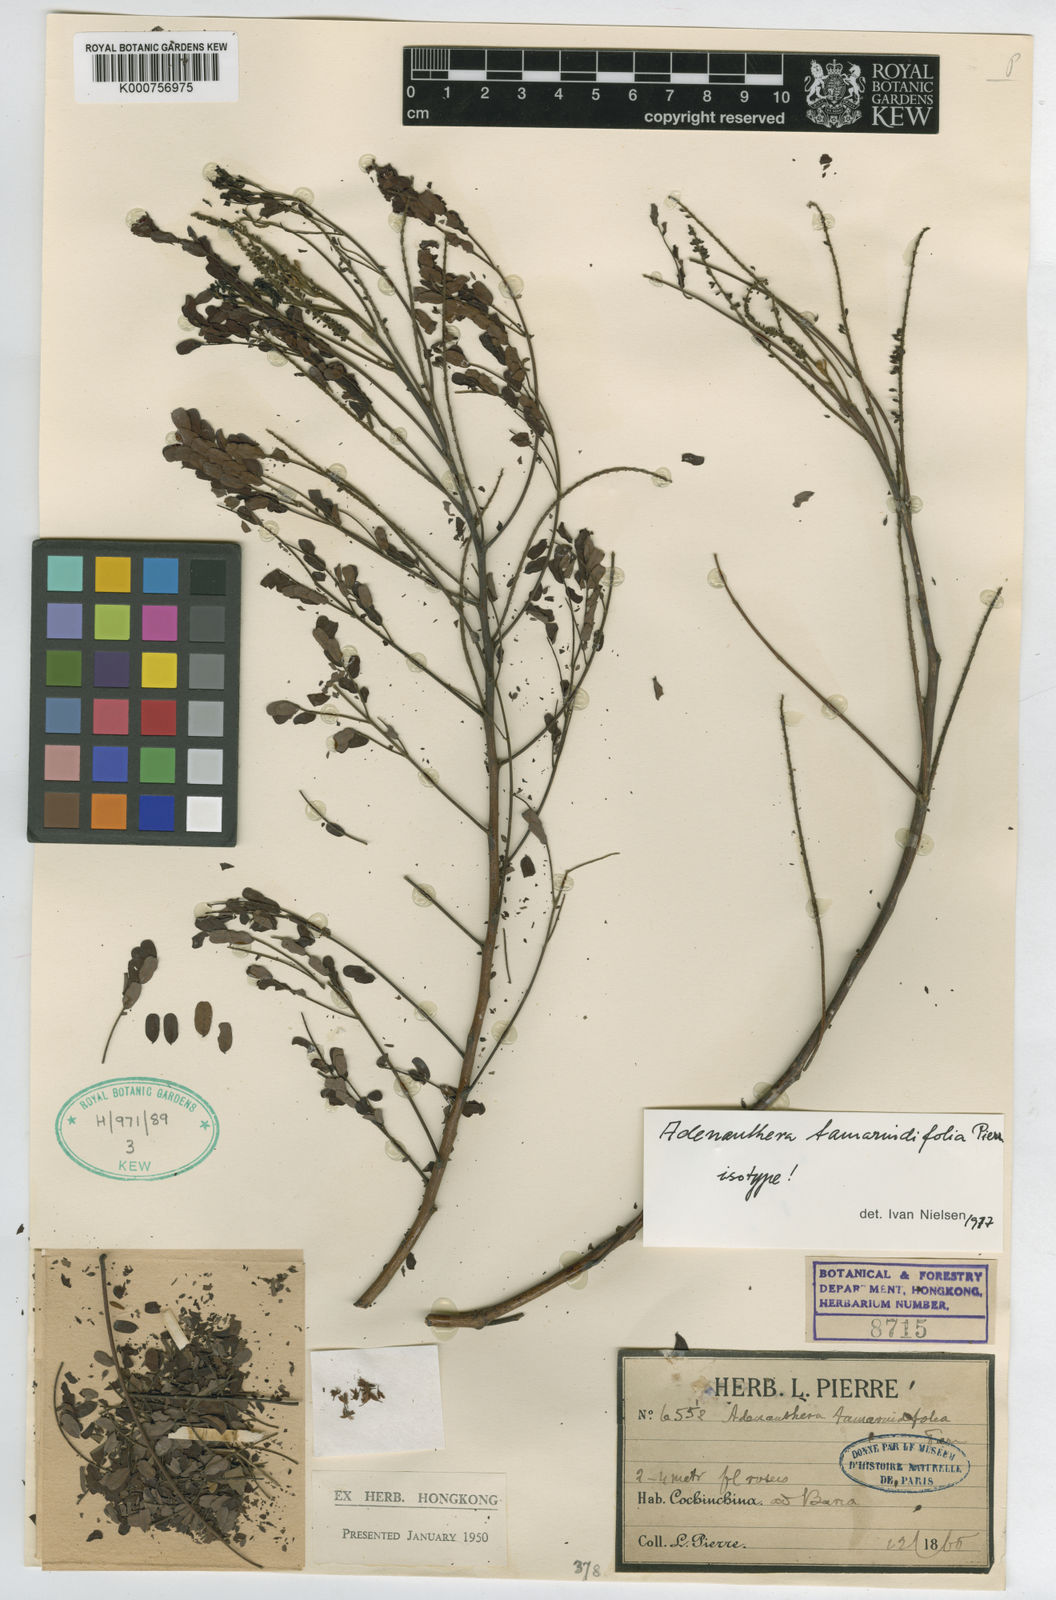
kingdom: Plantae
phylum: Tracheophyta
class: Magnoliopsida
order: Fabales
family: Fabaceae
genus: Adenanthera
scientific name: Adenanthera microsperma
